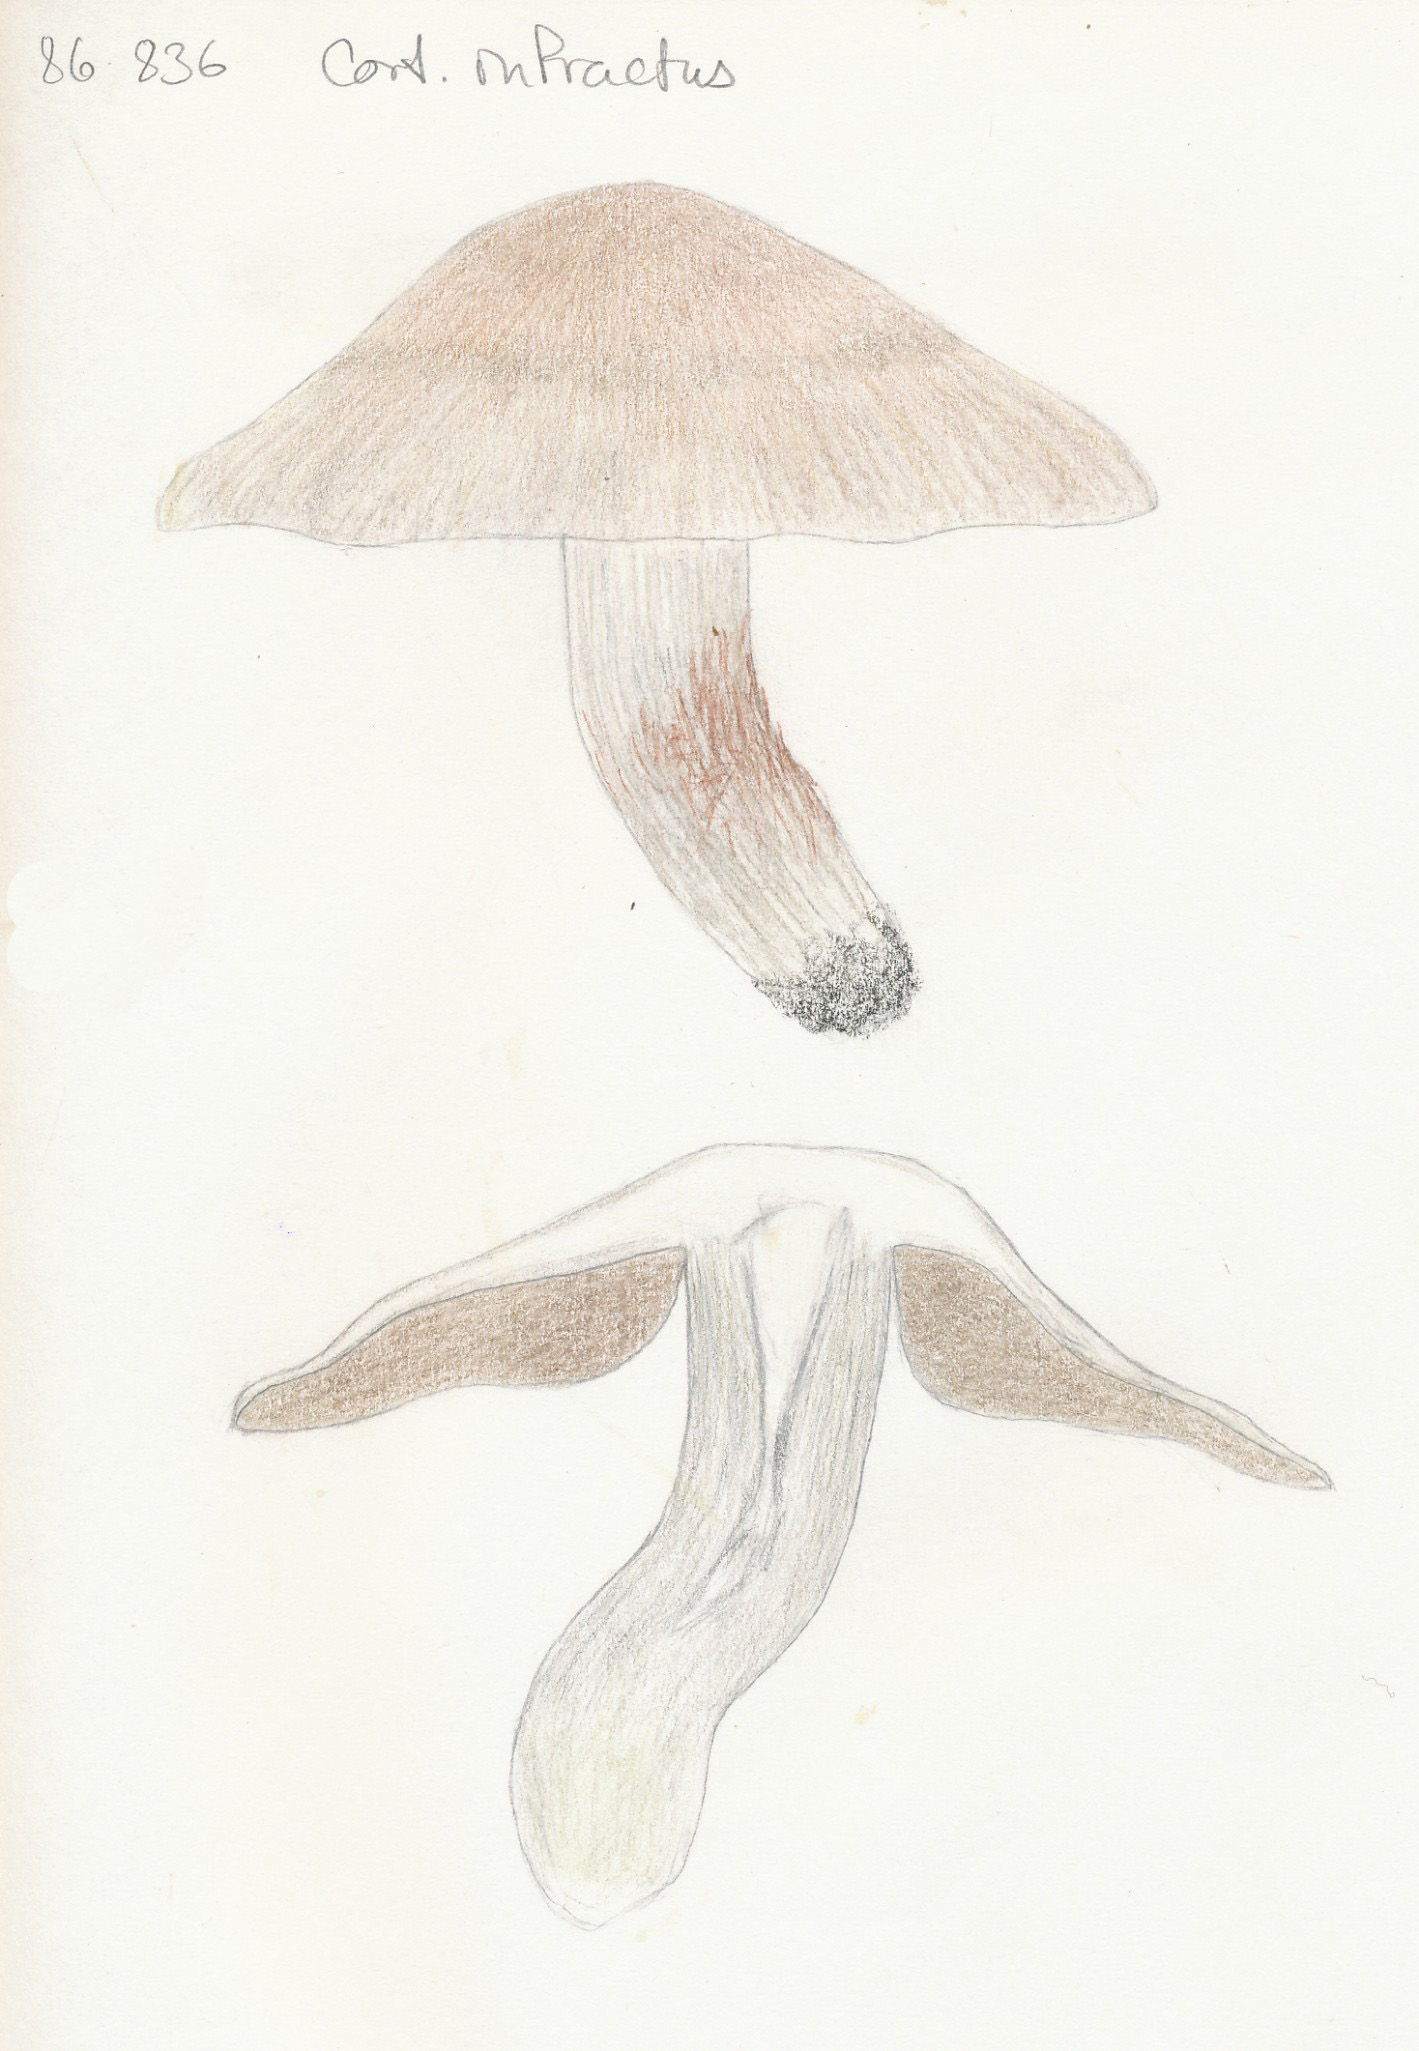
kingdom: Fungi
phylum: Basidiomycota
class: Agaricomycetes
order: Agaricales
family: Cortinariaceae
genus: Cortinarius
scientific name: Cortinarius
